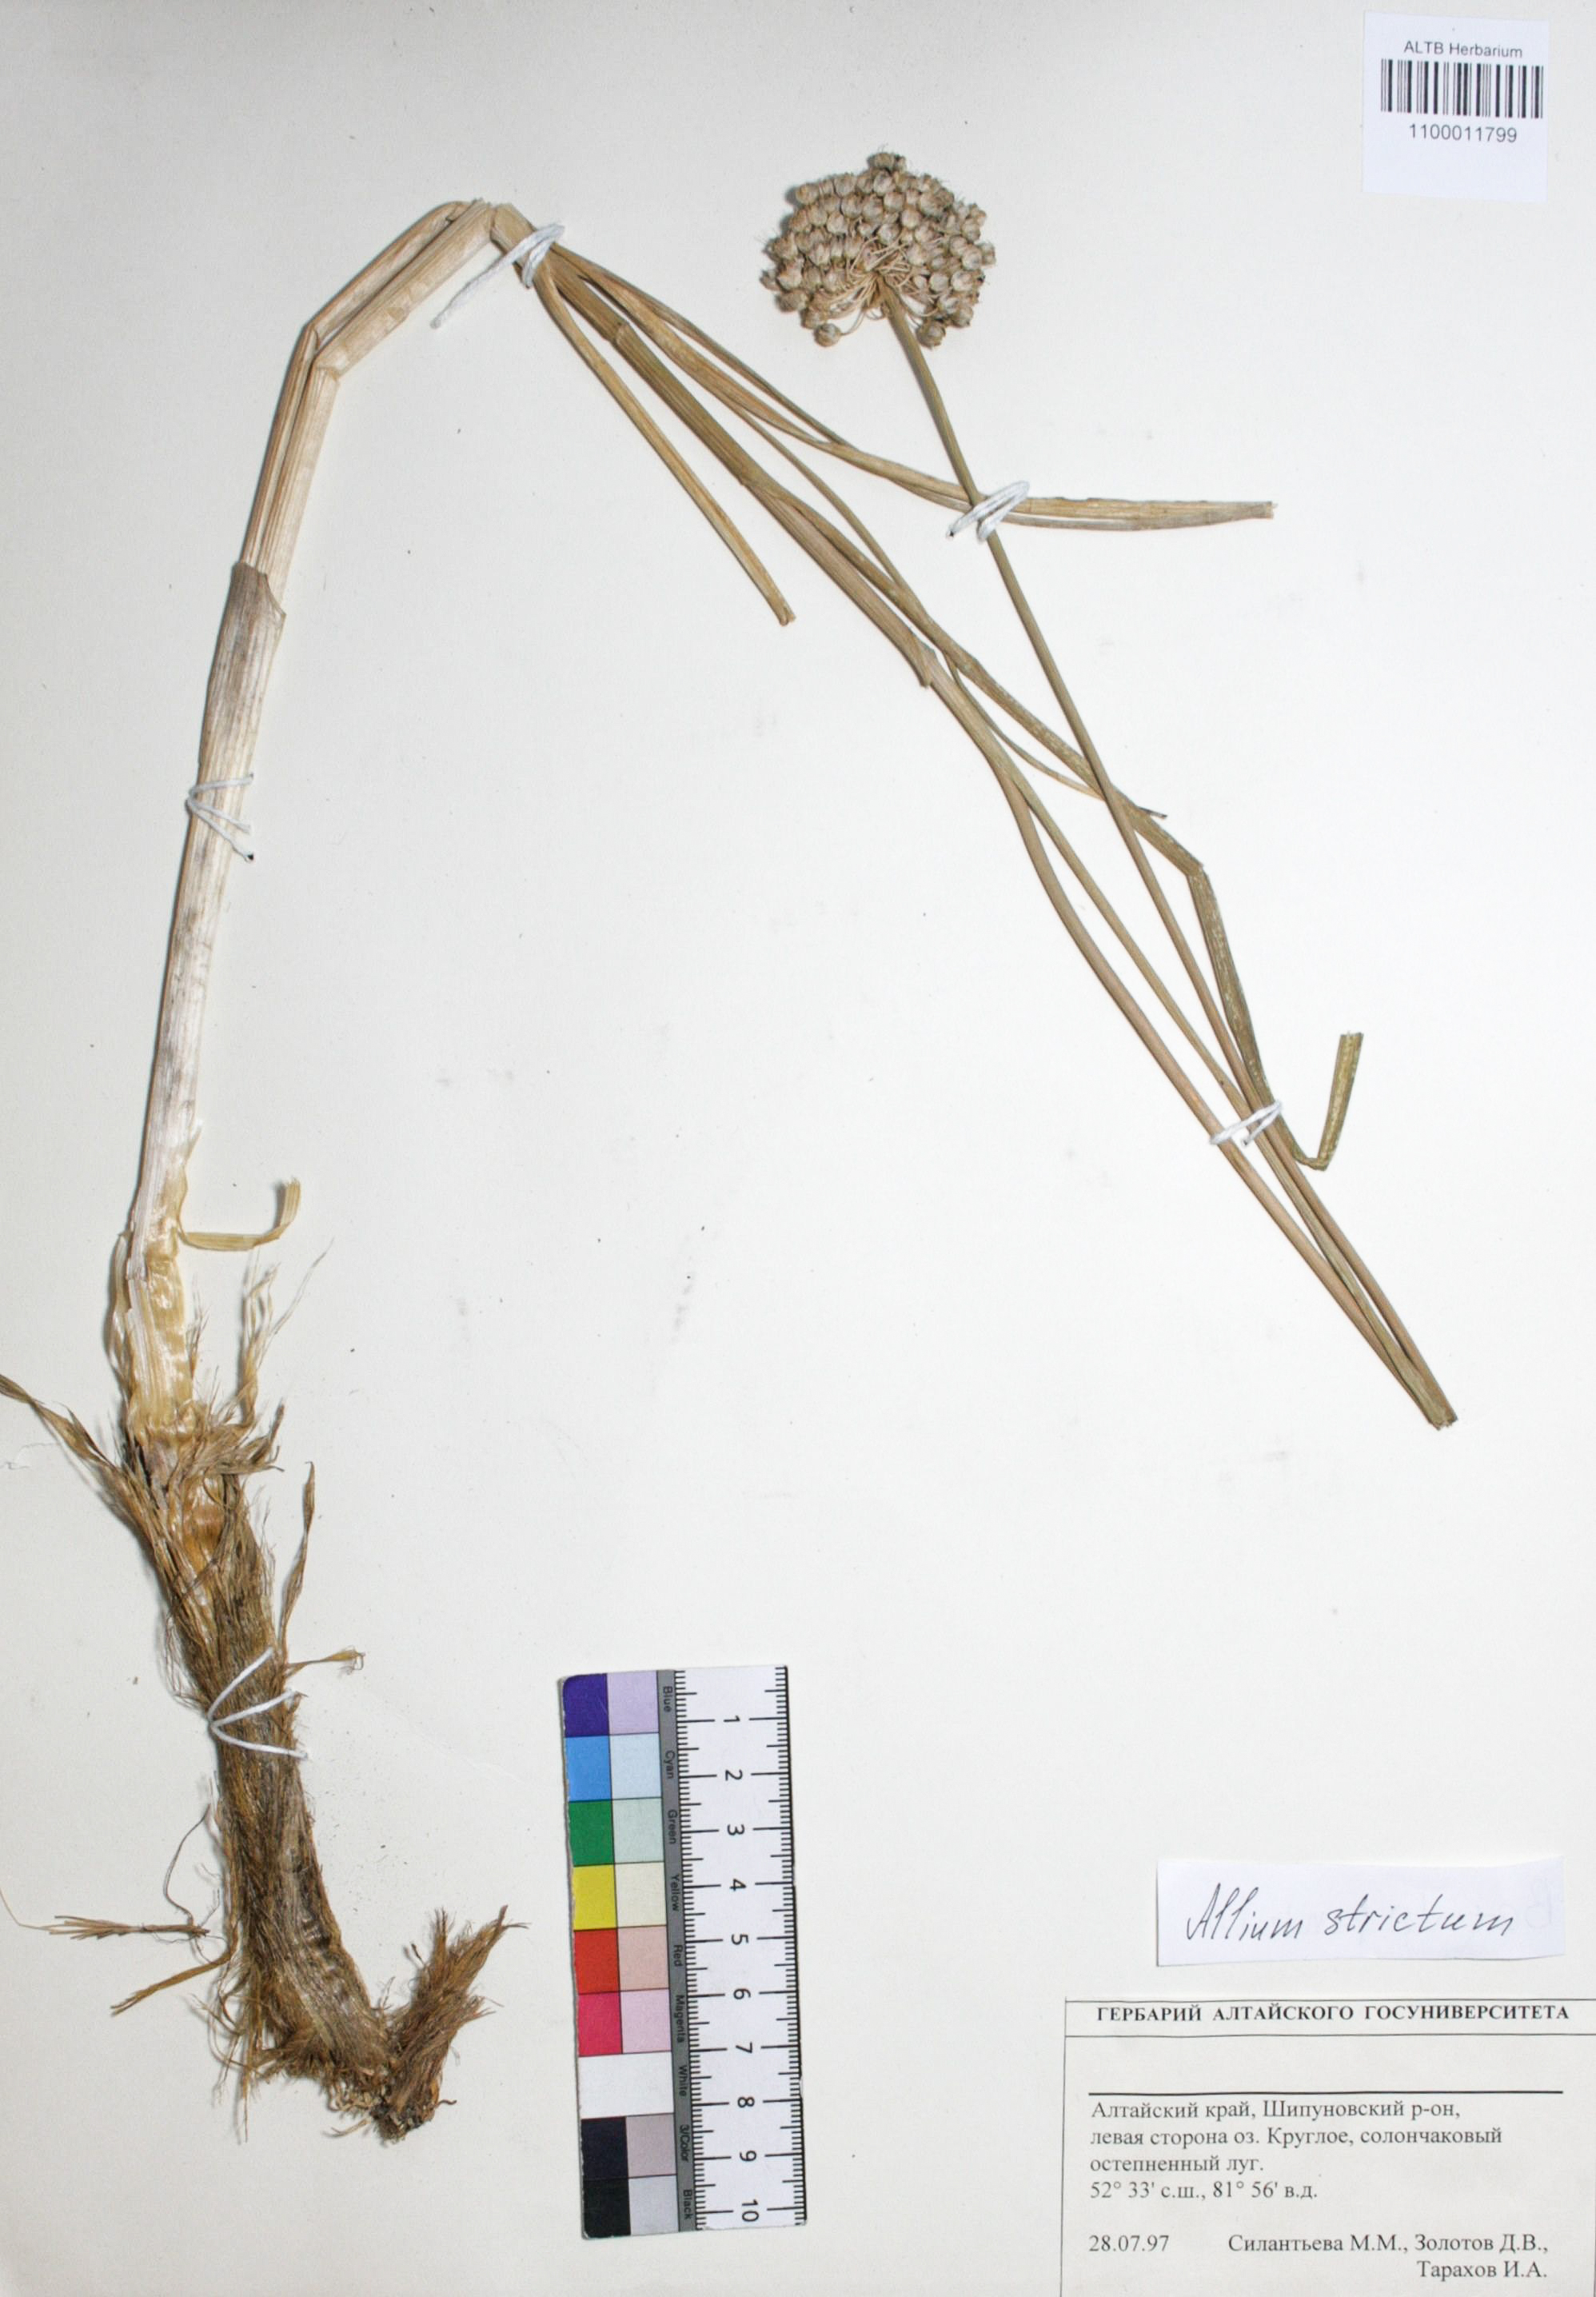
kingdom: Plantae
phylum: Tracheophyta
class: Liliopsida
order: Asparagales
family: Amaryllidaceae
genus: Allium
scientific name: Allium strictum
